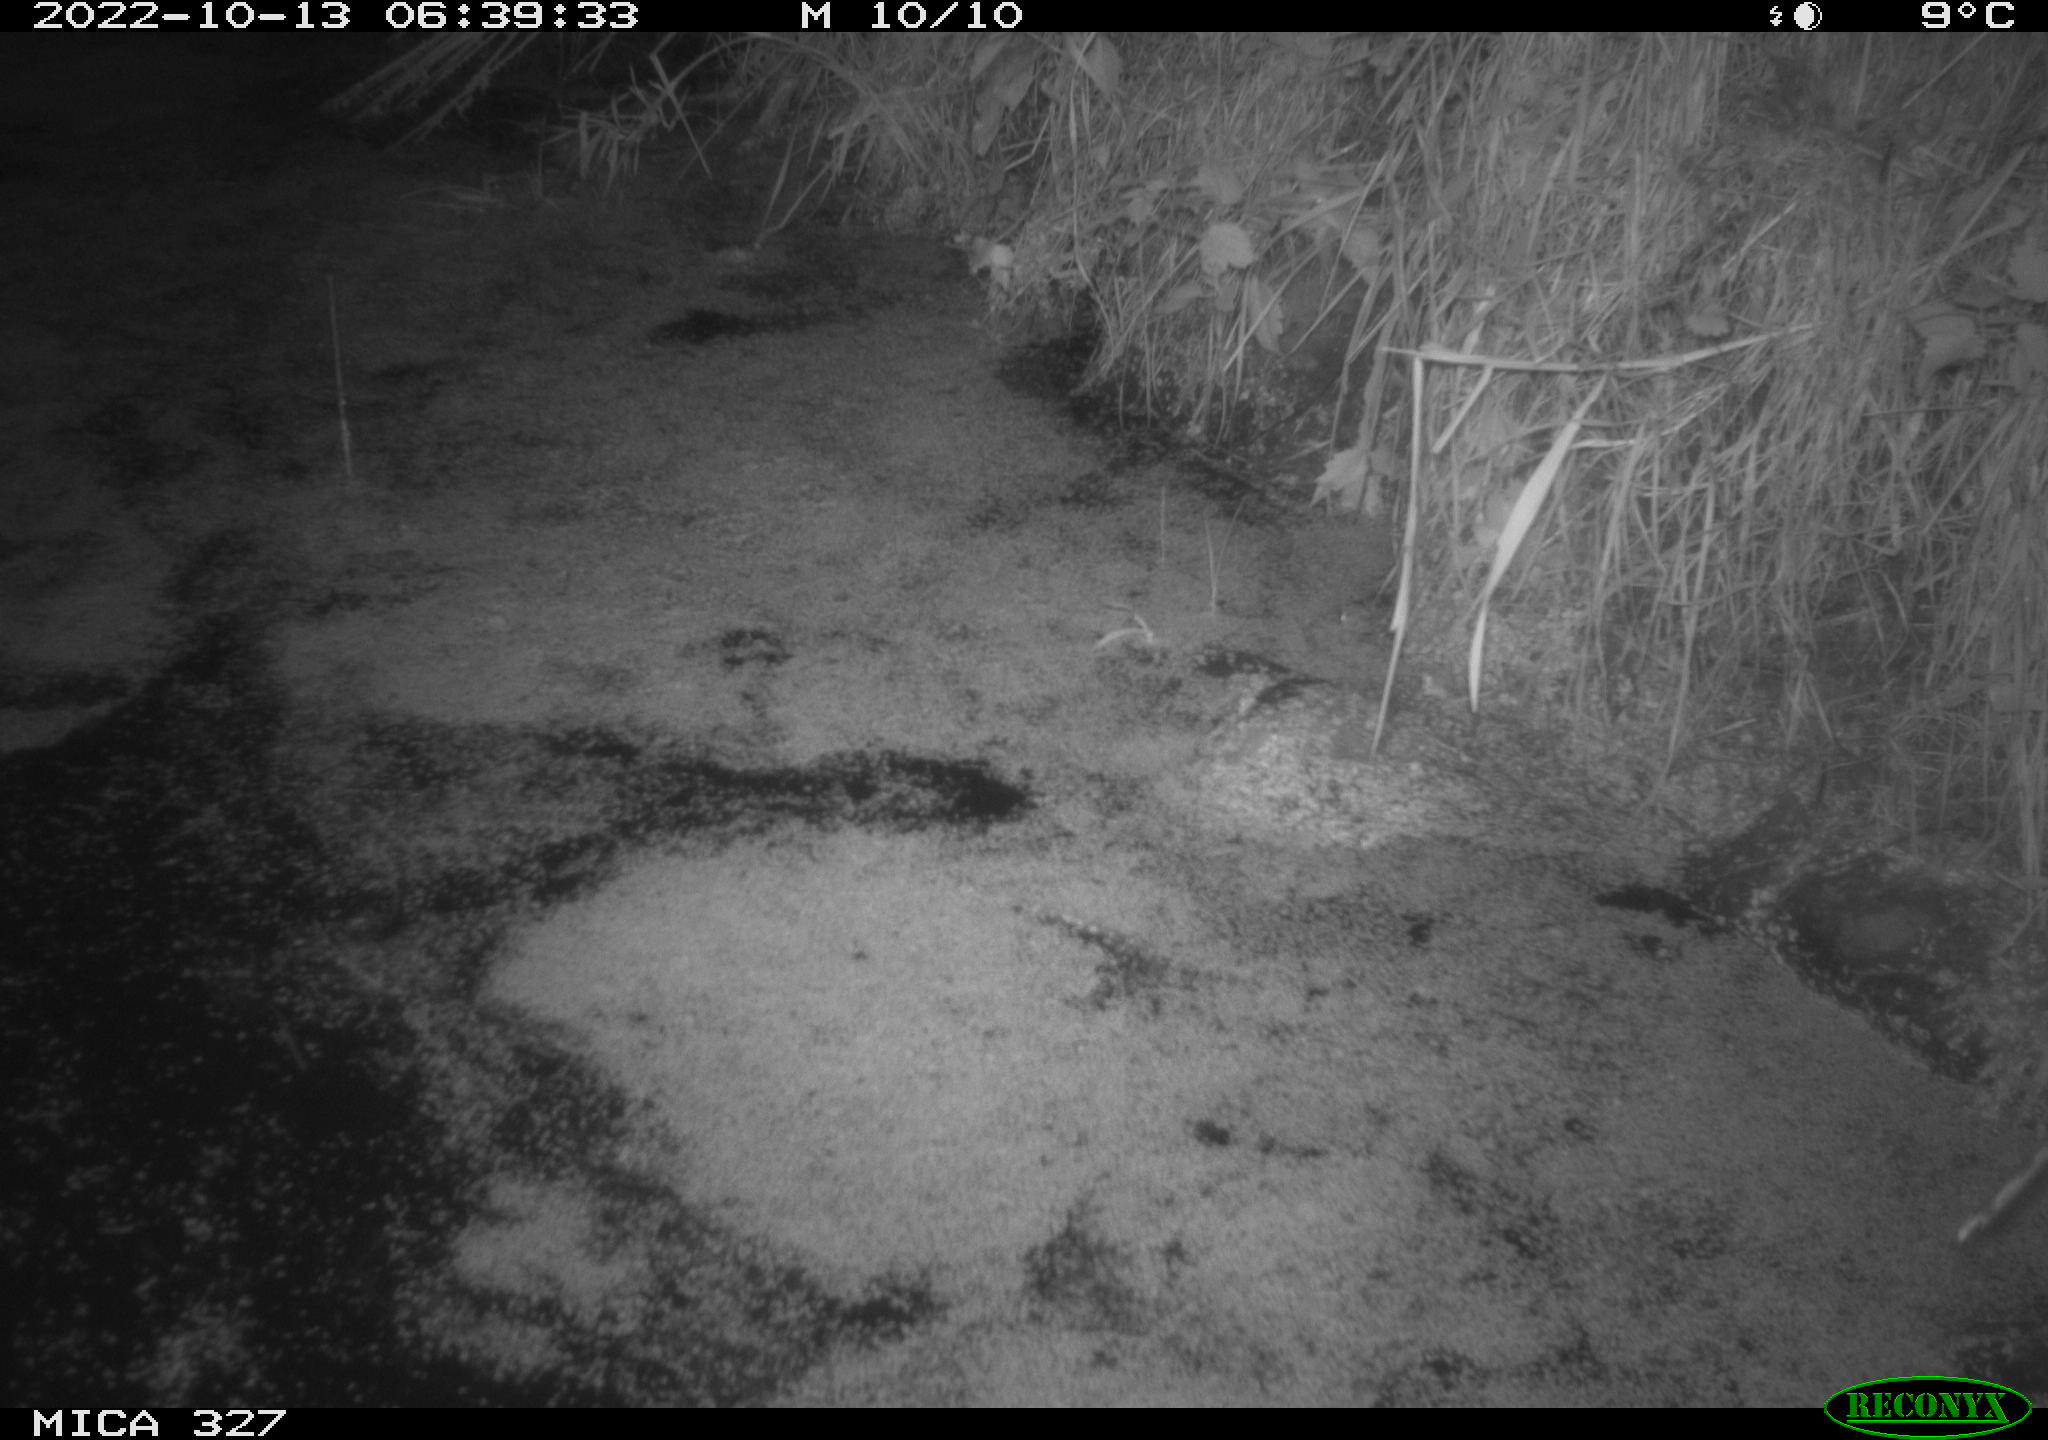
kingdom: Animalia
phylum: Chordata
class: Mammalia
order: Rodentia
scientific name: Rodentia
